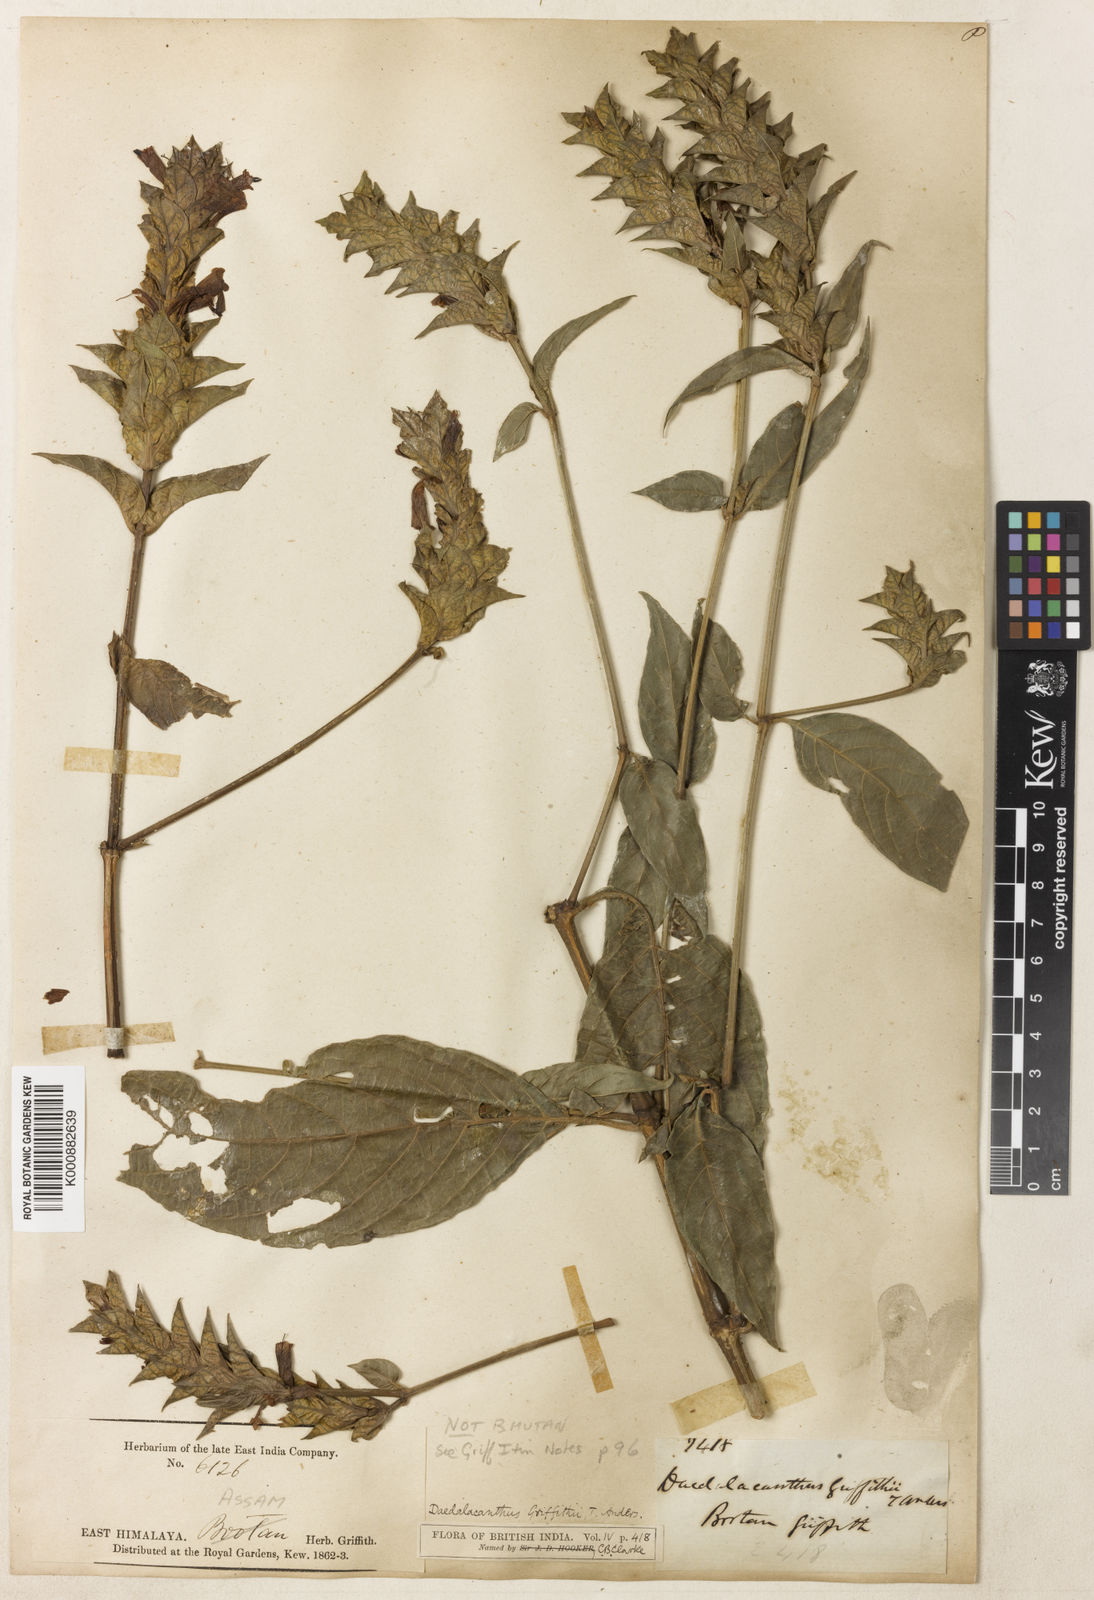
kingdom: Plantae
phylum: Tracheophyta
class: Magnoliopsida
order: Lamiales
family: Acanthaceae
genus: Eranthemum
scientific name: Eranthemum griffithii
